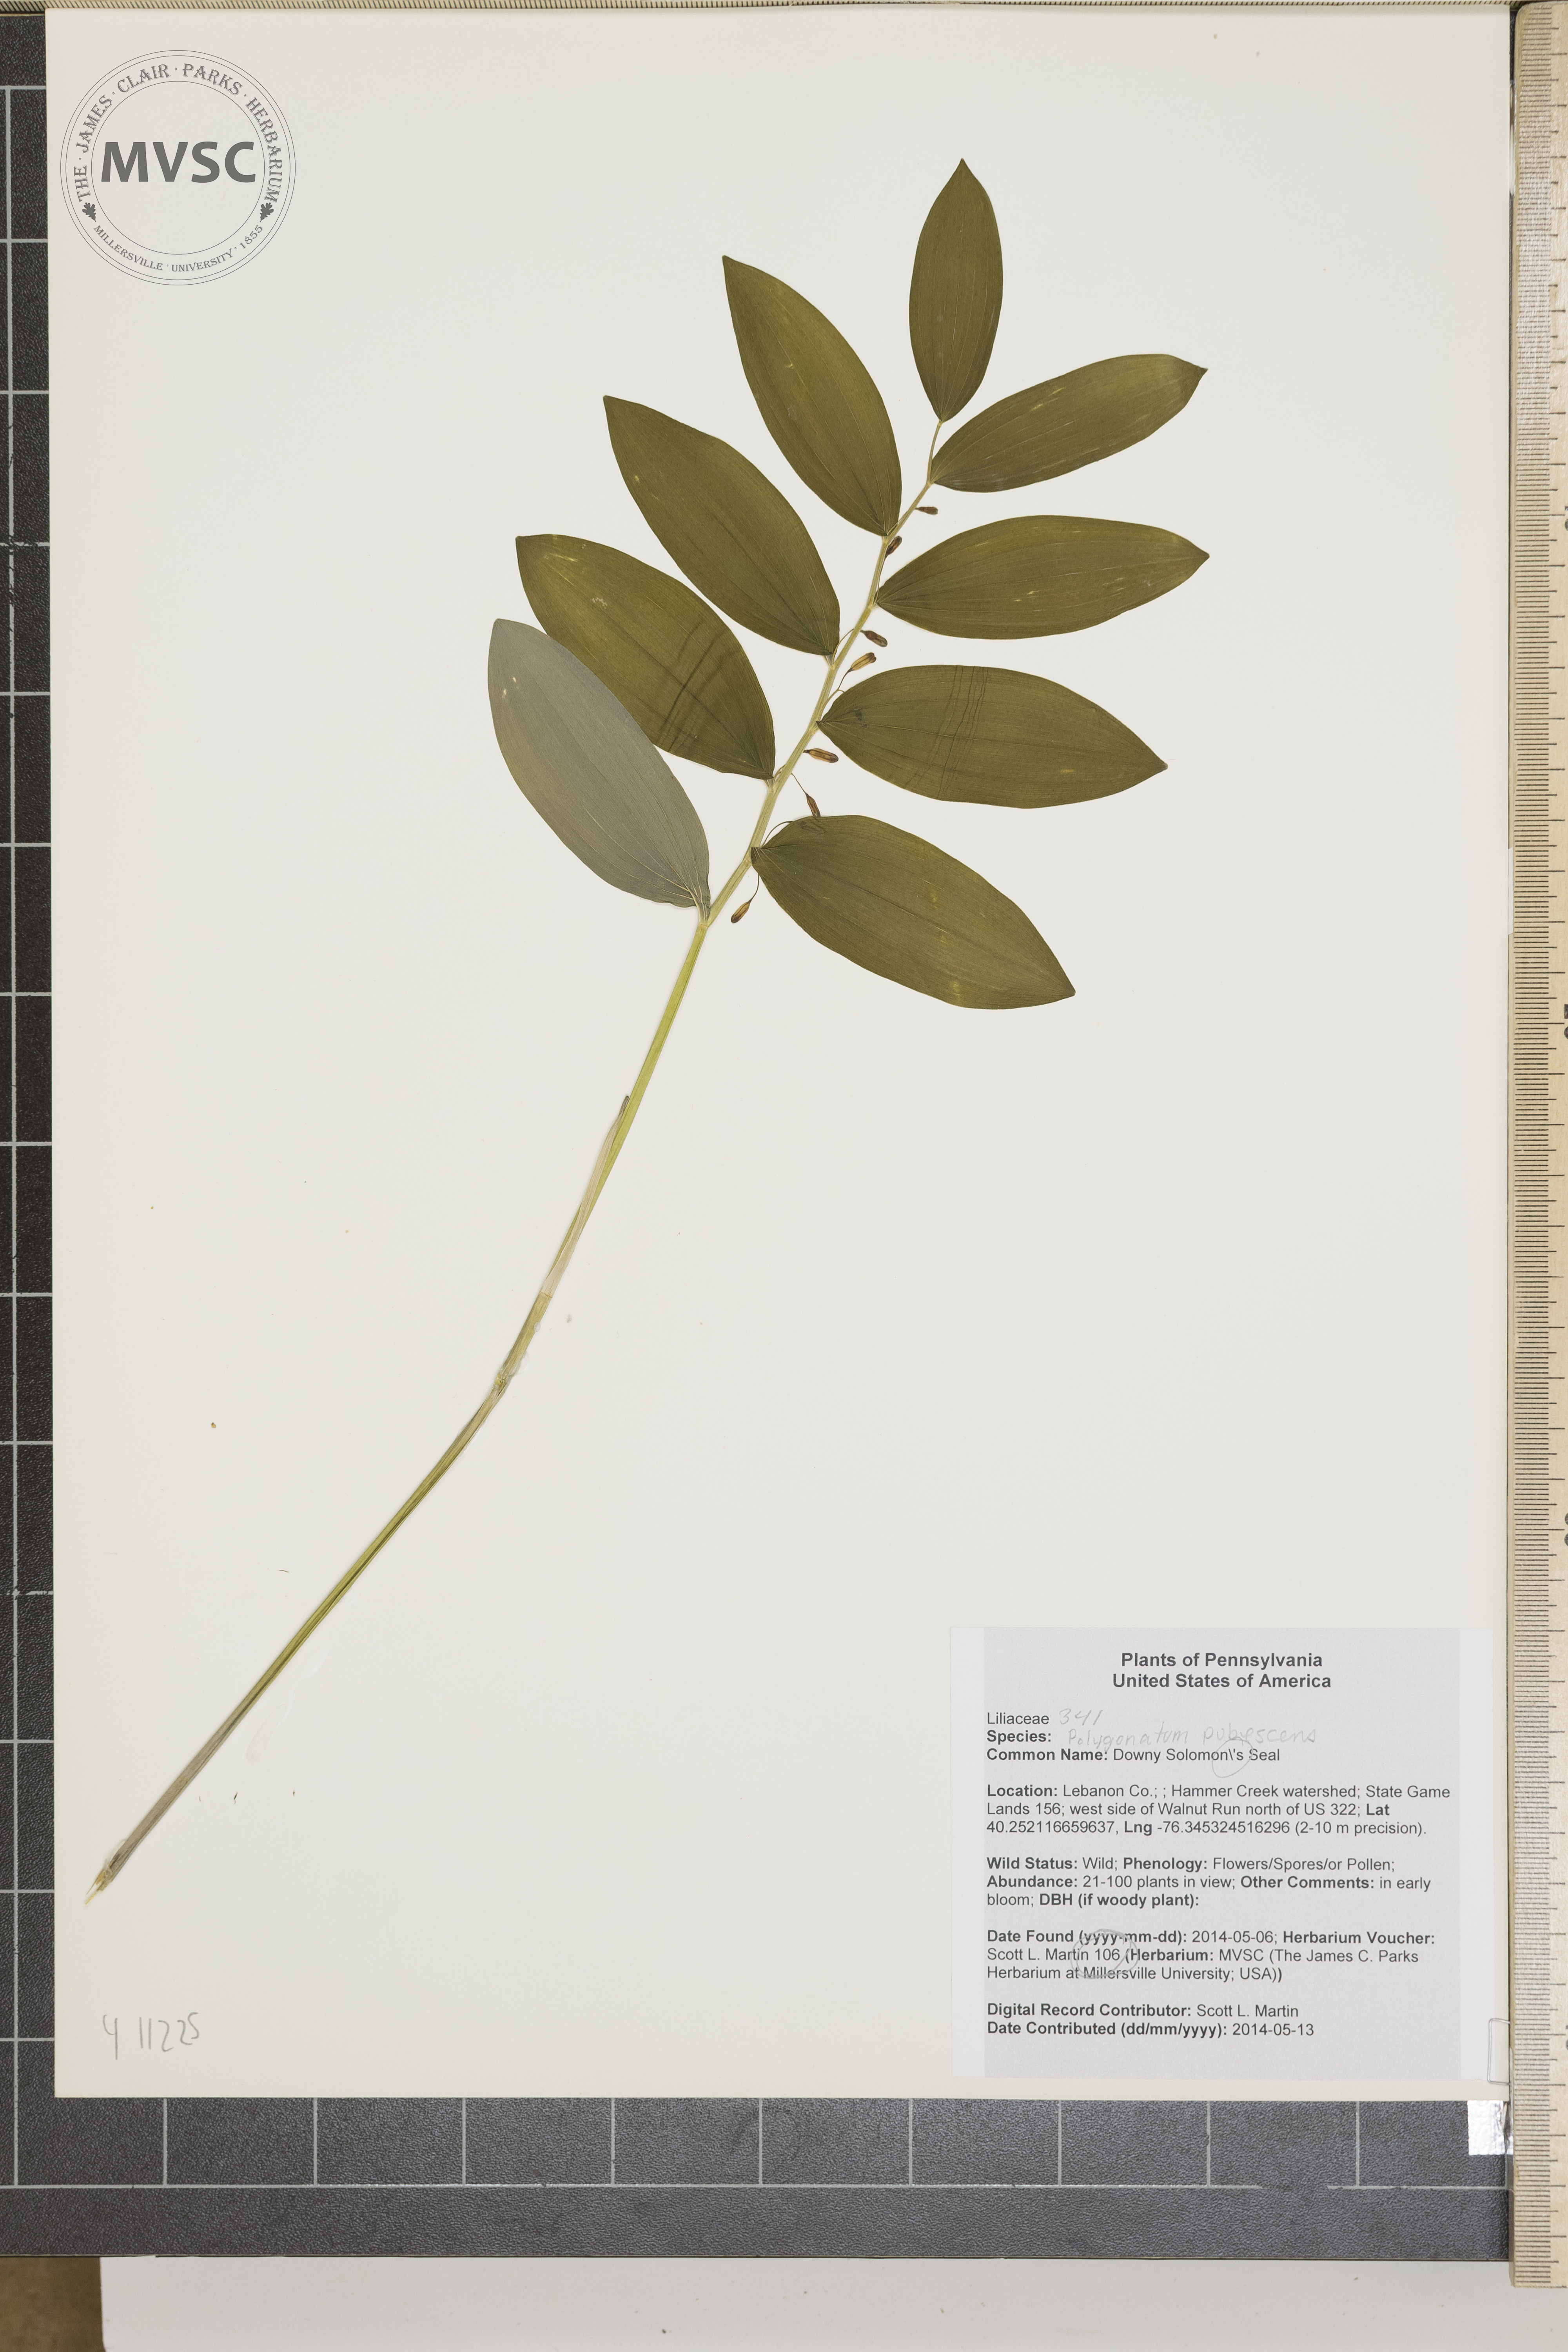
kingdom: Plantae
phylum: Tracheophyta
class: Liliopsida
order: Asparagales
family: Asparagaceae
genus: Polygonatum
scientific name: Polygonatum pubescens
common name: Downy Solomon's Seal
